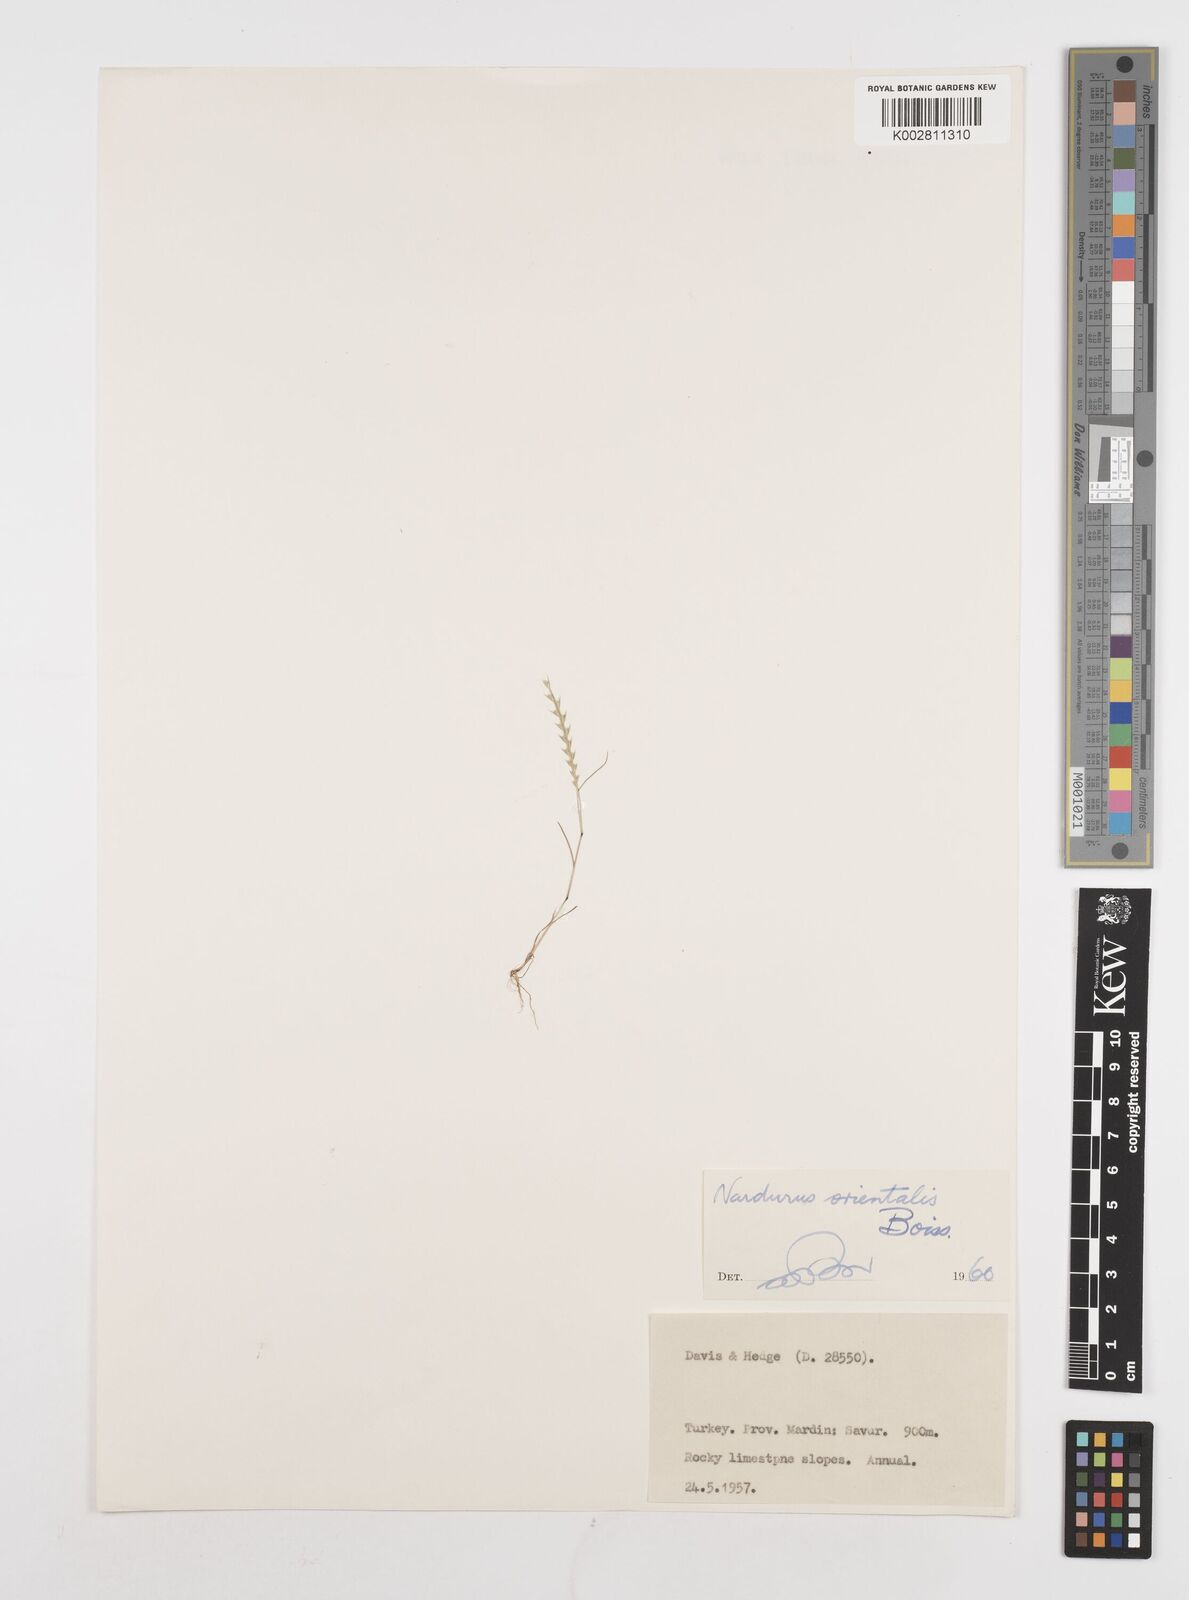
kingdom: Plantae
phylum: Tracheophyta
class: Liliopsida
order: Poales
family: Poaceae
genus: Festuca
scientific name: Festuca orientalis
